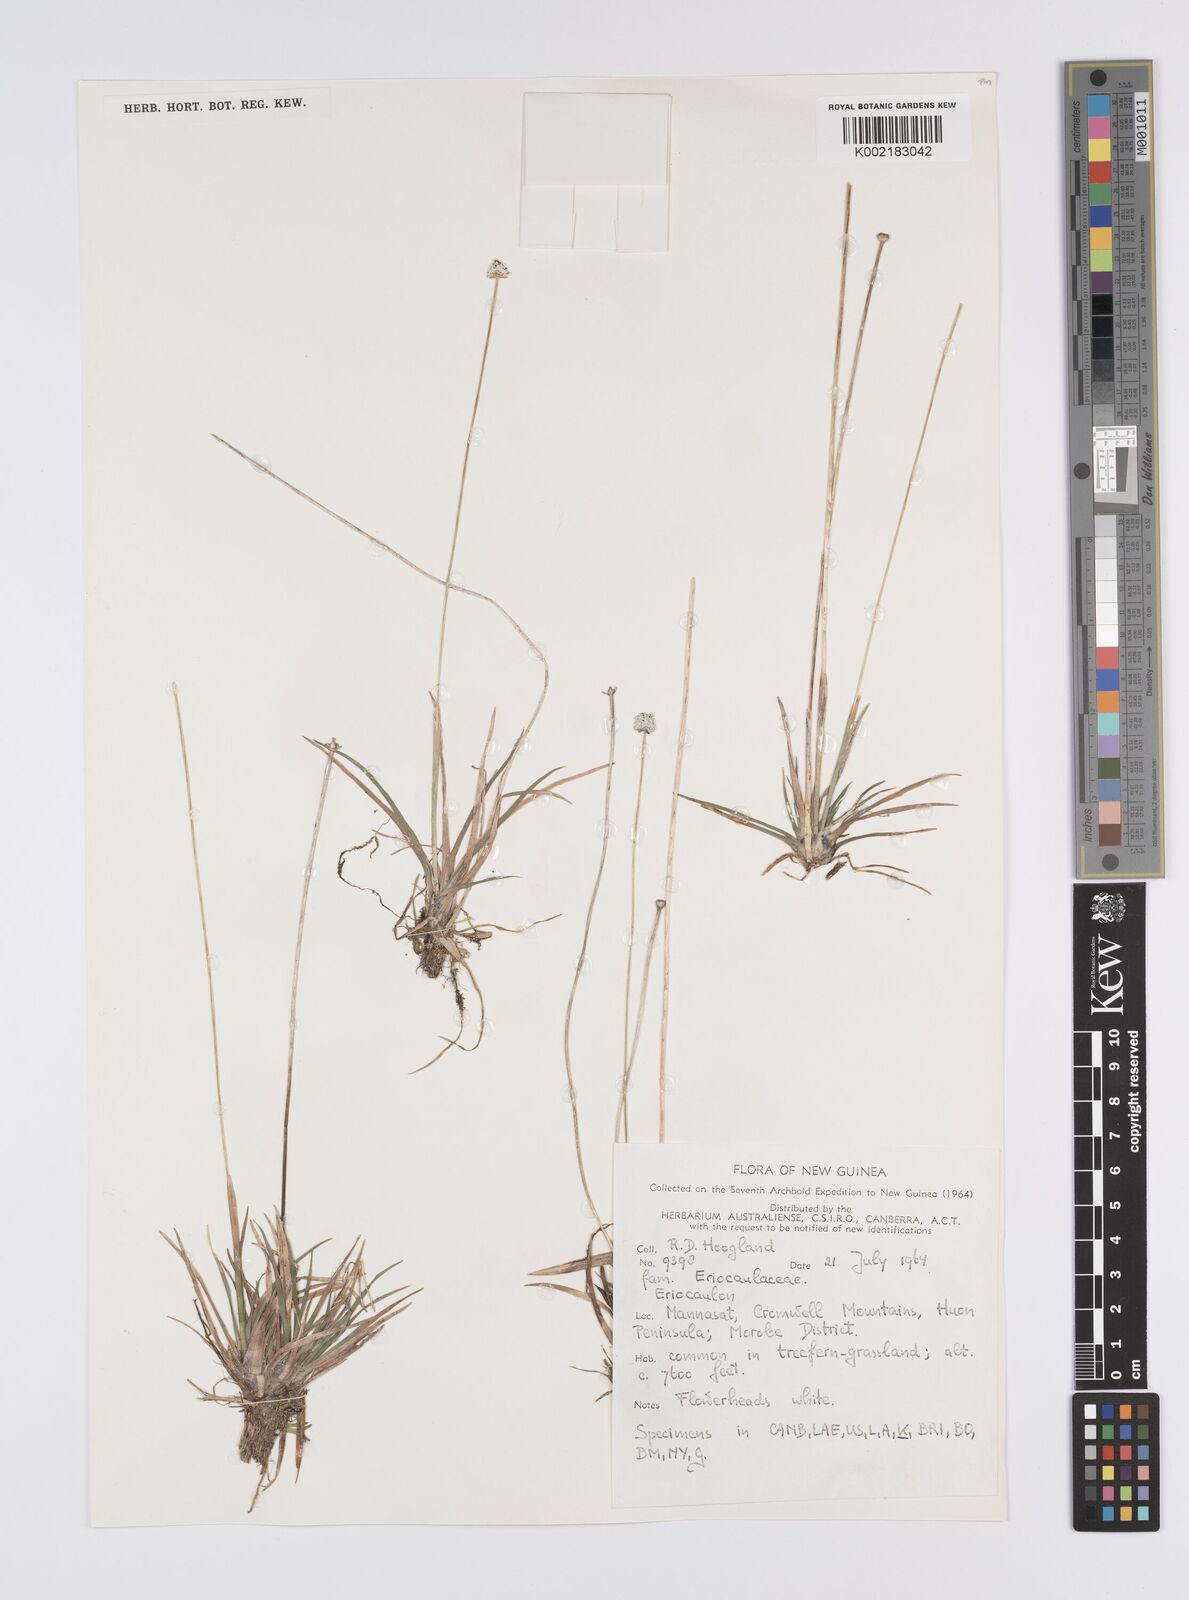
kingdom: Plantae
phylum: Tracheophyta
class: Liliopsida
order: Poales
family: Eriocaulaceae
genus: Eriocaulon
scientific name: Eriocaulon
